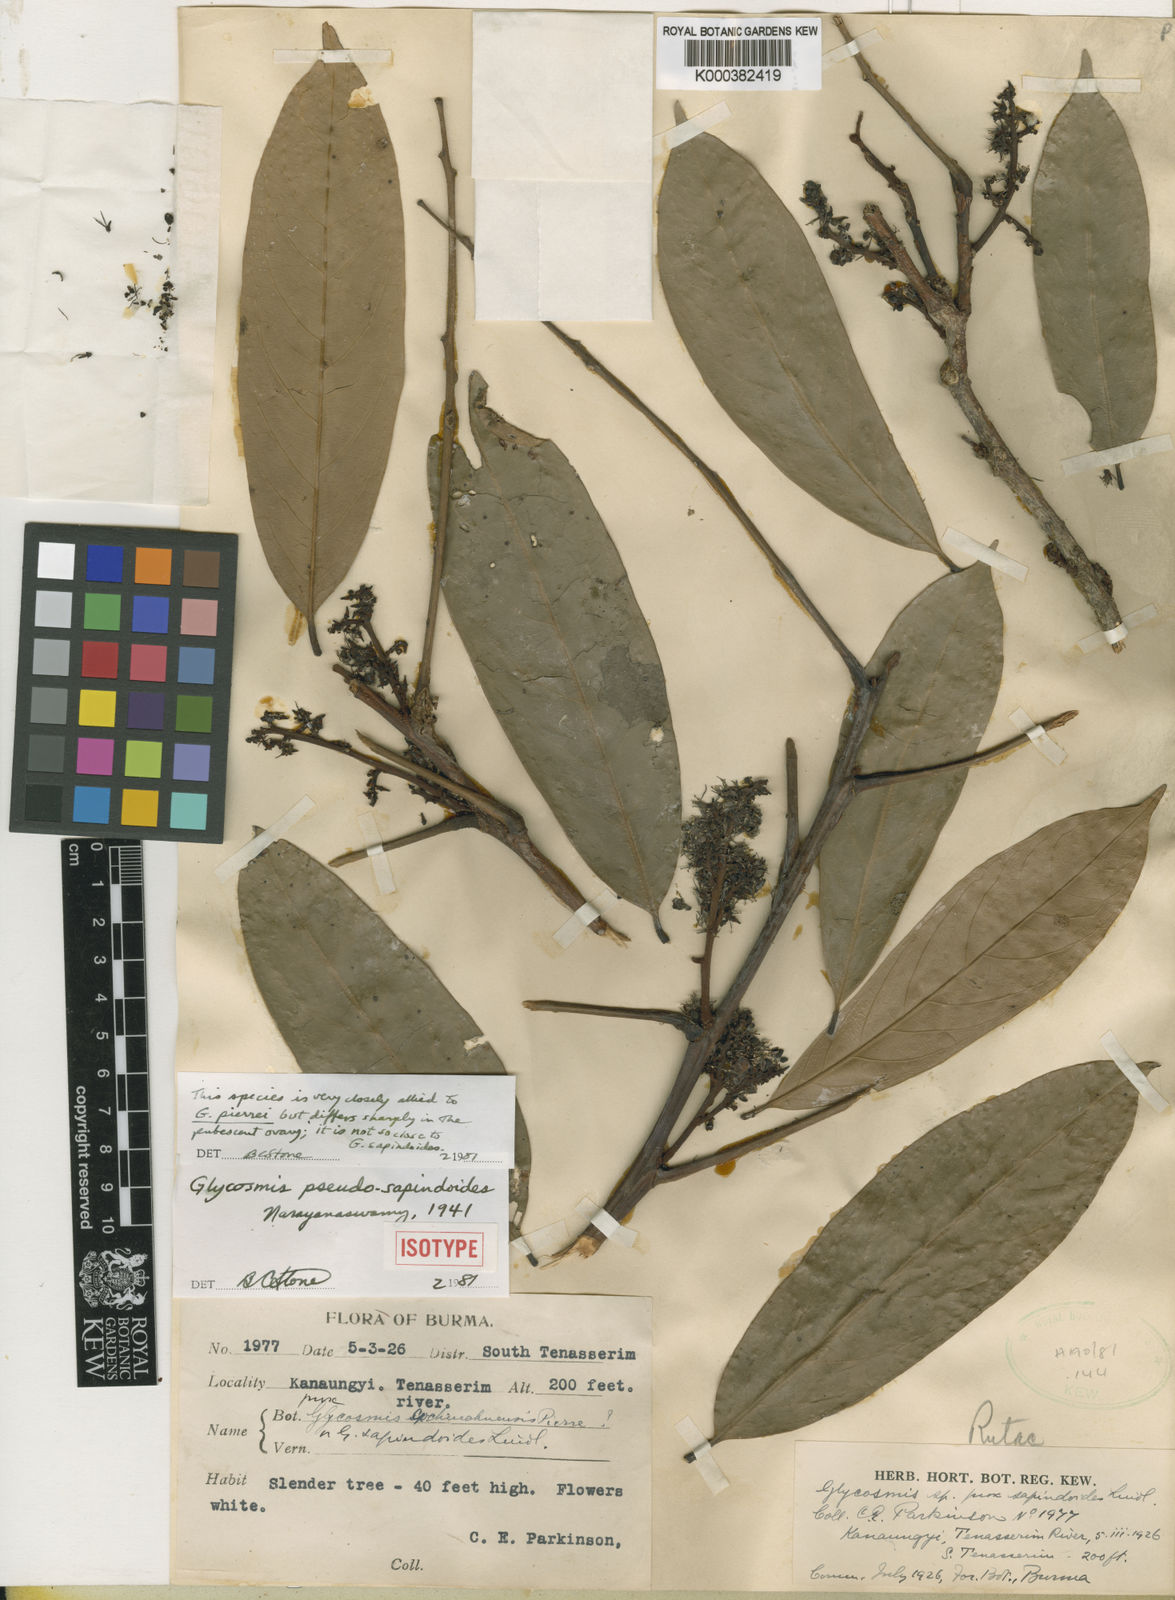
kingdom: Plantae
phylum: Tracheophyta
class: Magnoliopsida
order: Sapindales
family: Rutaceae
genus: Glycosmis
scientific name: Glycosmis pseudosapindoides
